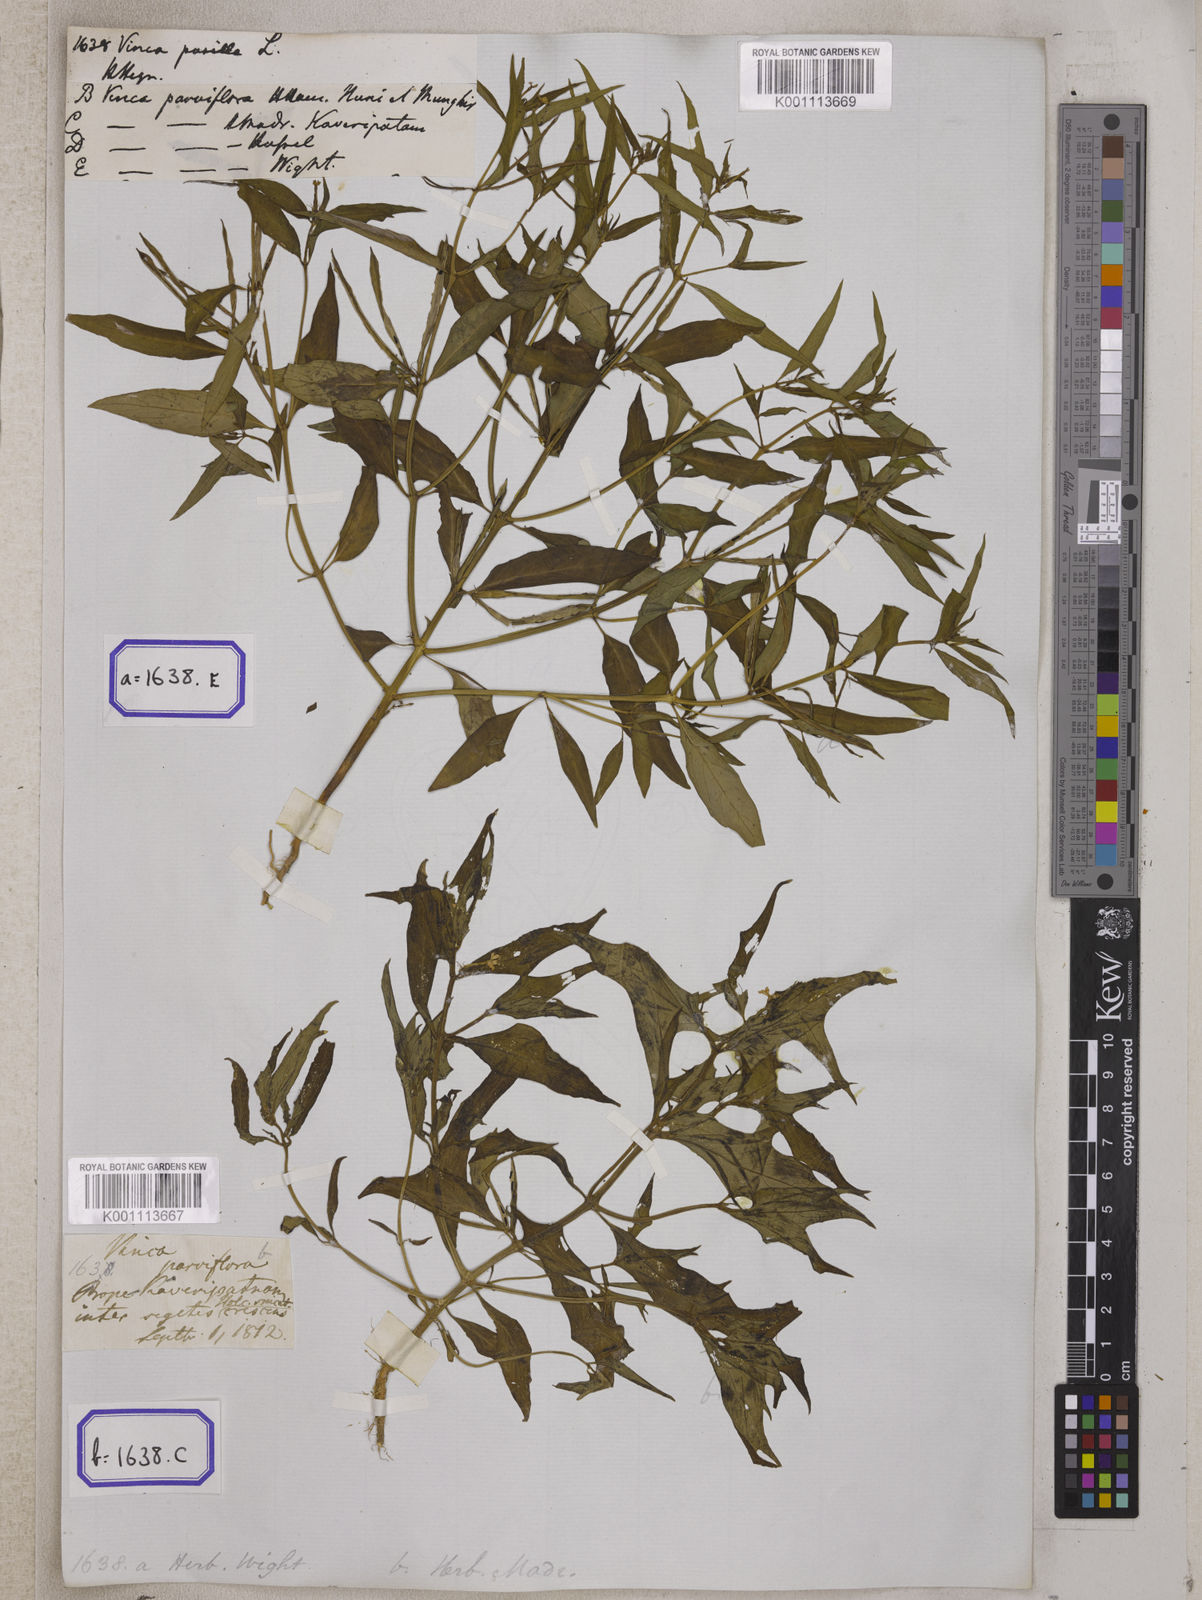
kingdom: Plantae
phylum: Tracheophyta
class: Magnoliopsida
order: Gentianales
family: Apocynaceae
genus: Vinca
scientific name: Vinca
